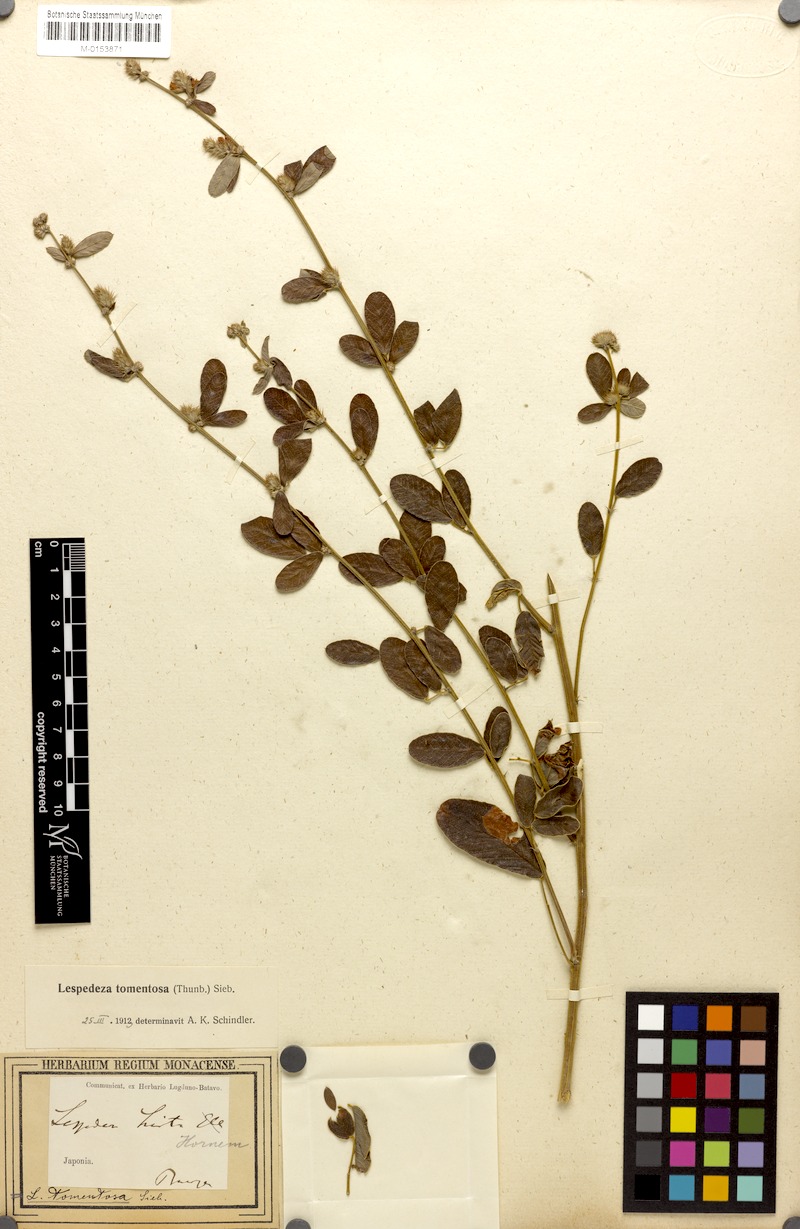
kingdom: Plantae
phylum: Tracheophyta
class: Magnoliopsida
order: Fabales
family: Fabaceae
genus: Lespedeza
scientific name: Lespedeza tomentosa
